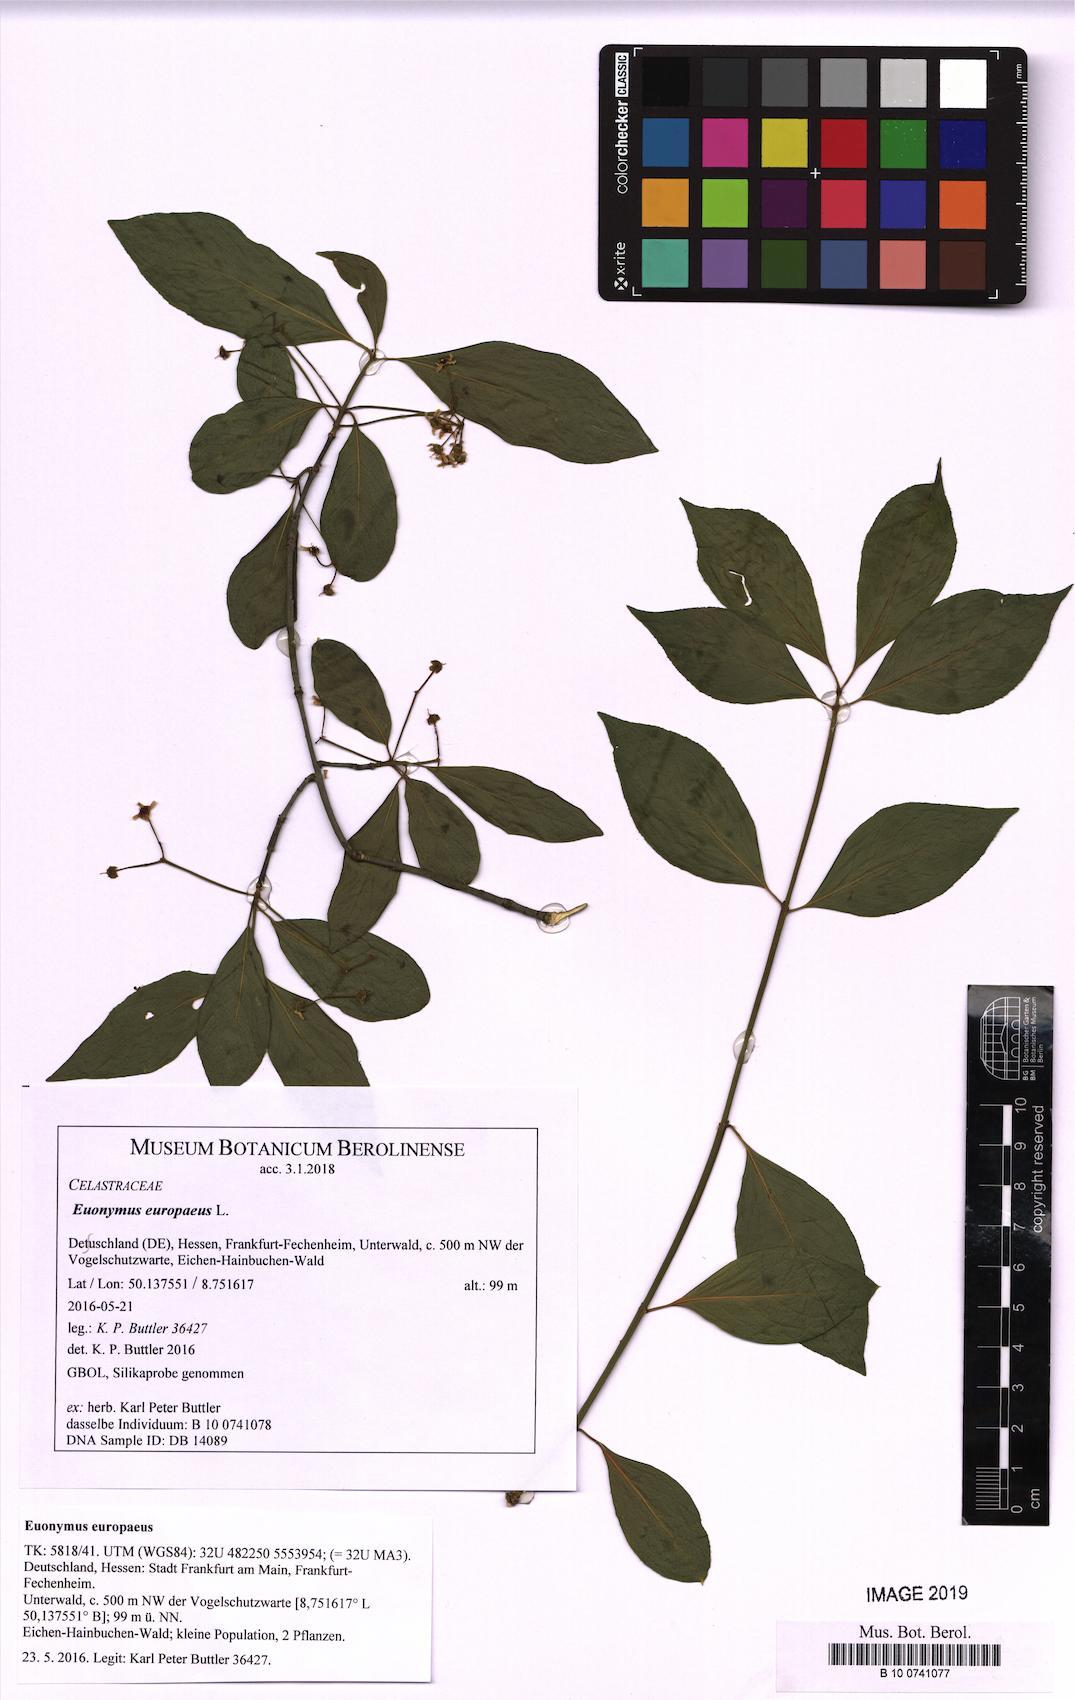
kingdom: Plantae
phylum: Tracheophyta
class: Magnoliopsida
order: Celastrales
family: Celastraceae
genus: Euonymus
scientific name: Euonymus europaeus
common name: Spindle
